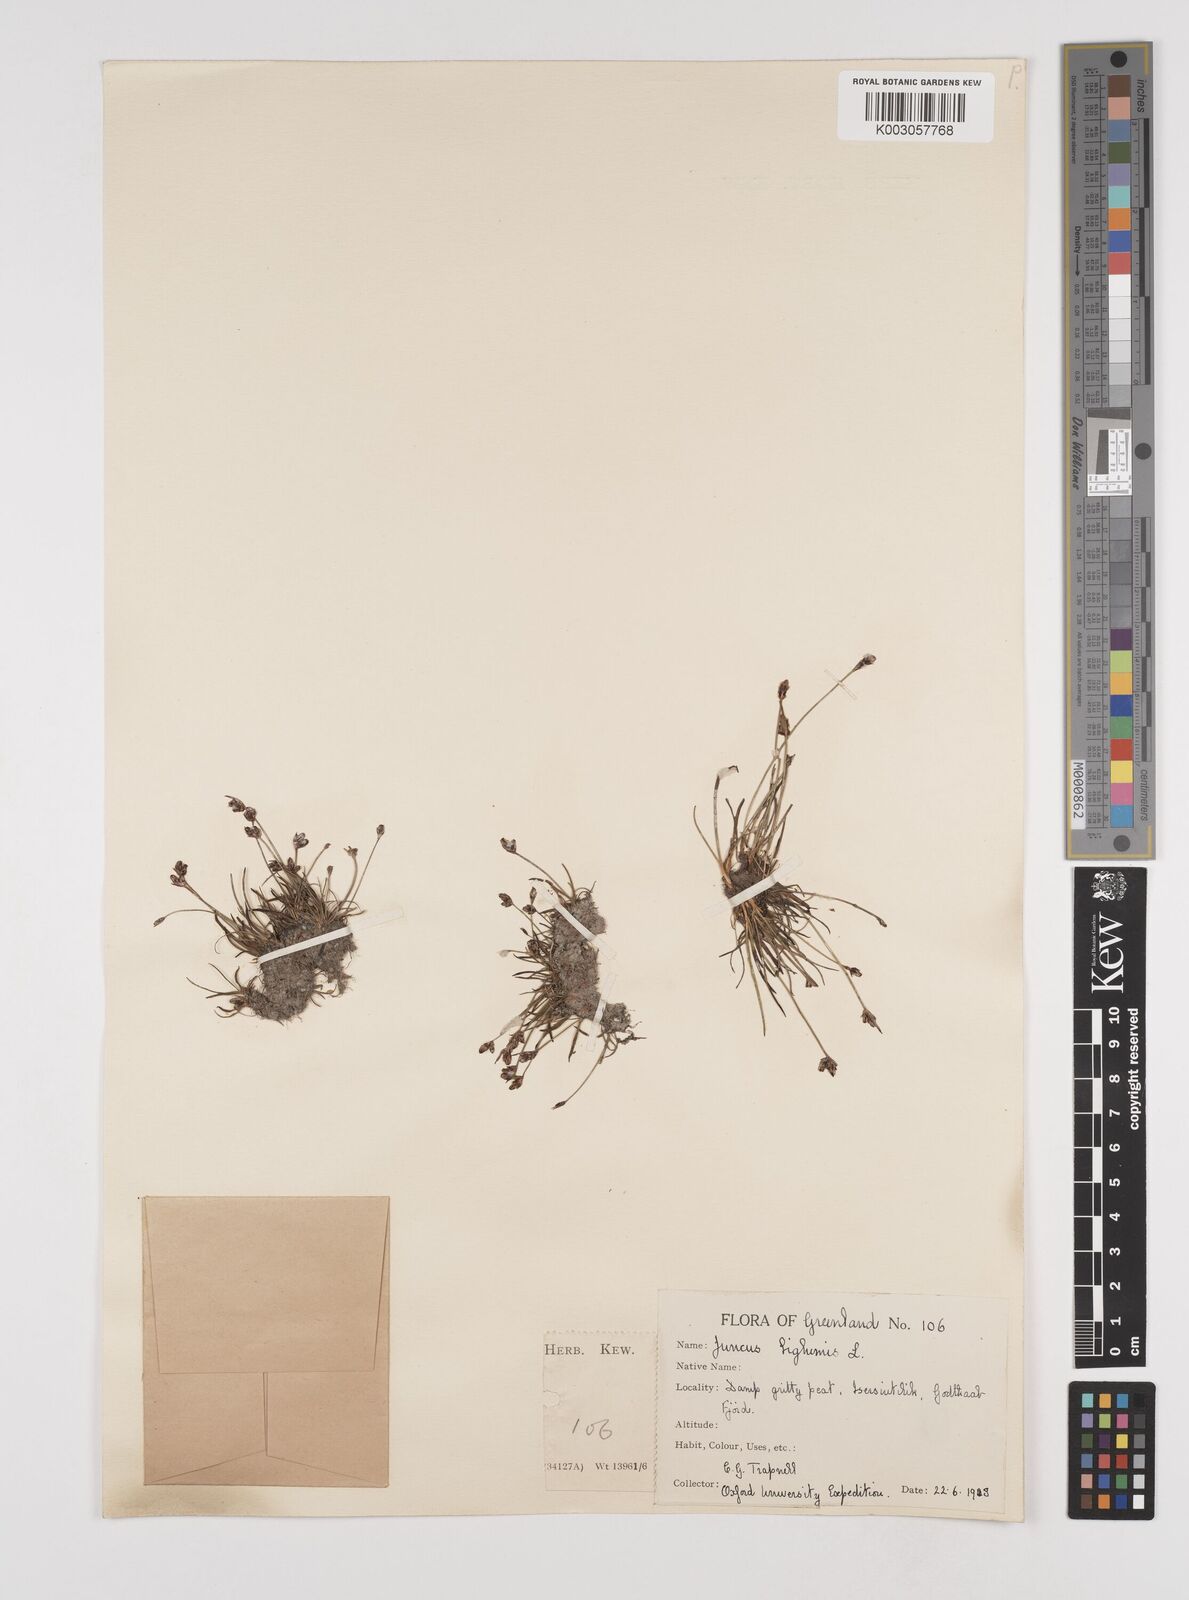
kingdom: Plantae
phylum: Tracheophyta
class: Liliopsida
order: Poales
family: Juncaceae
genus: Juncus
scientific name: Juncus biglumis
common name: Two-flowered rush
